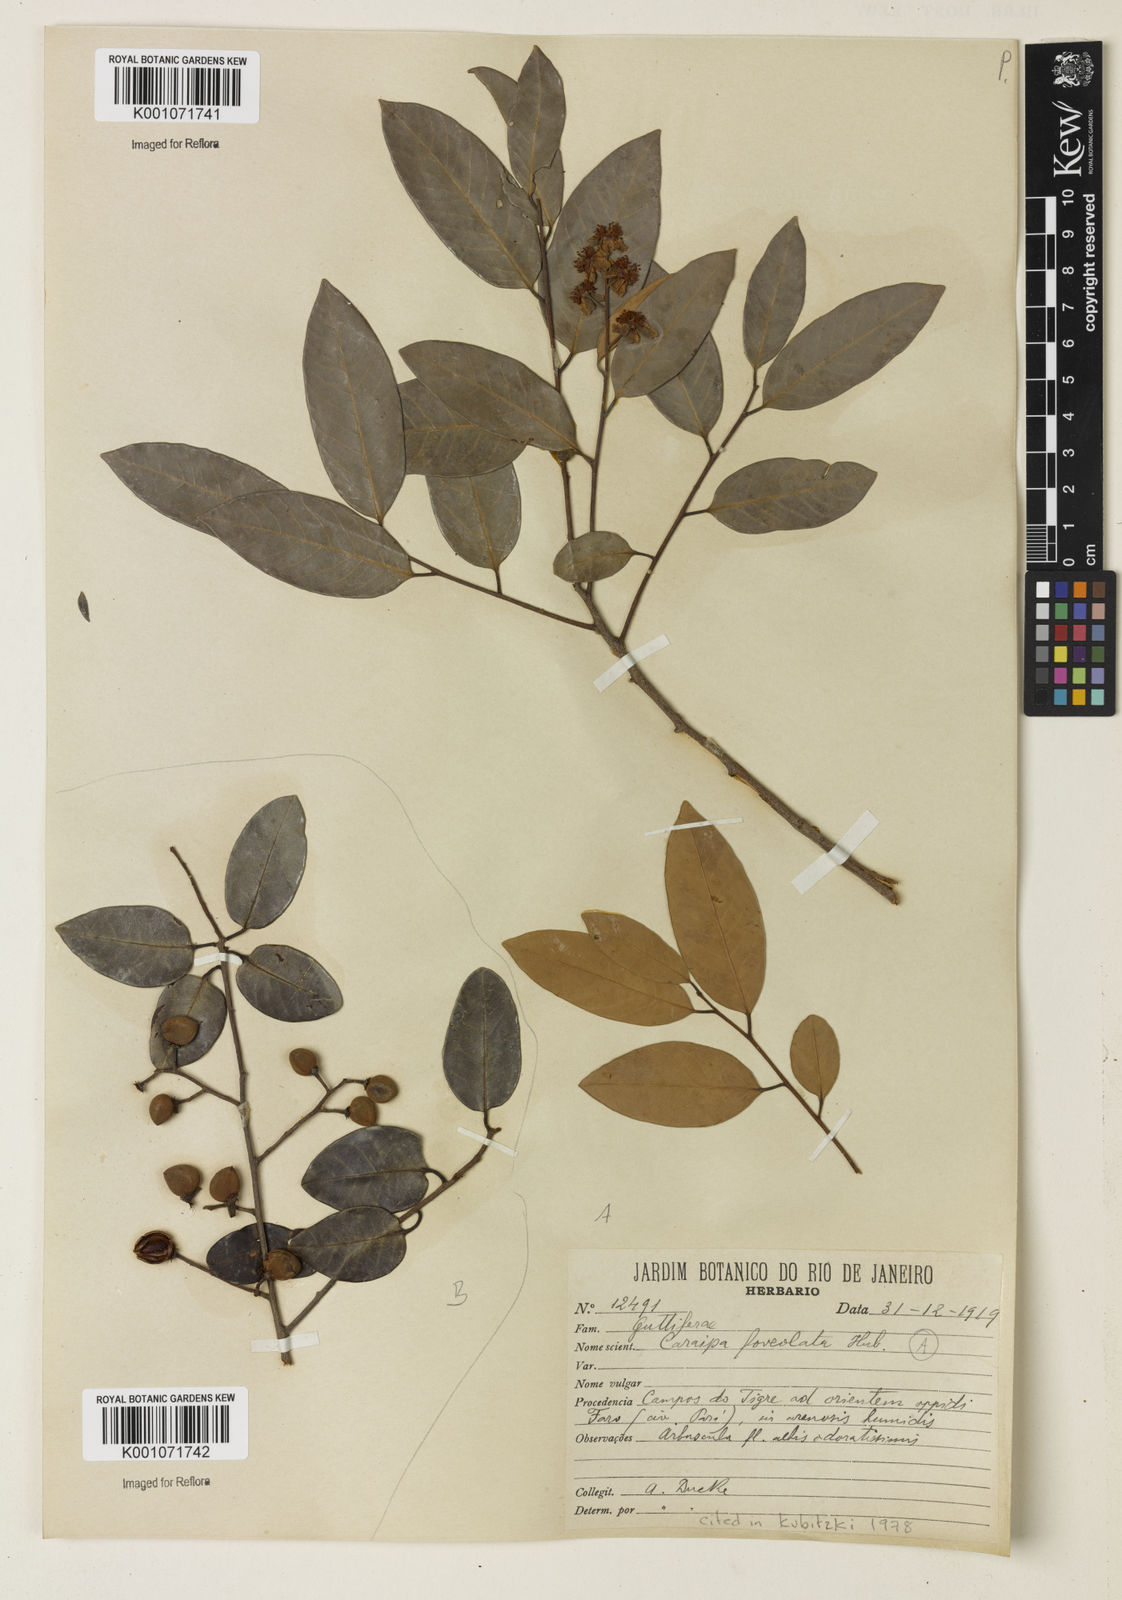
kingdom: Plantae
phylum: Tracheophyta
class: Magnoliopsida
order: Malpighiales
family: Calophyllaceae
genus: Caraipa
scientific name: Caraipa foveolata
